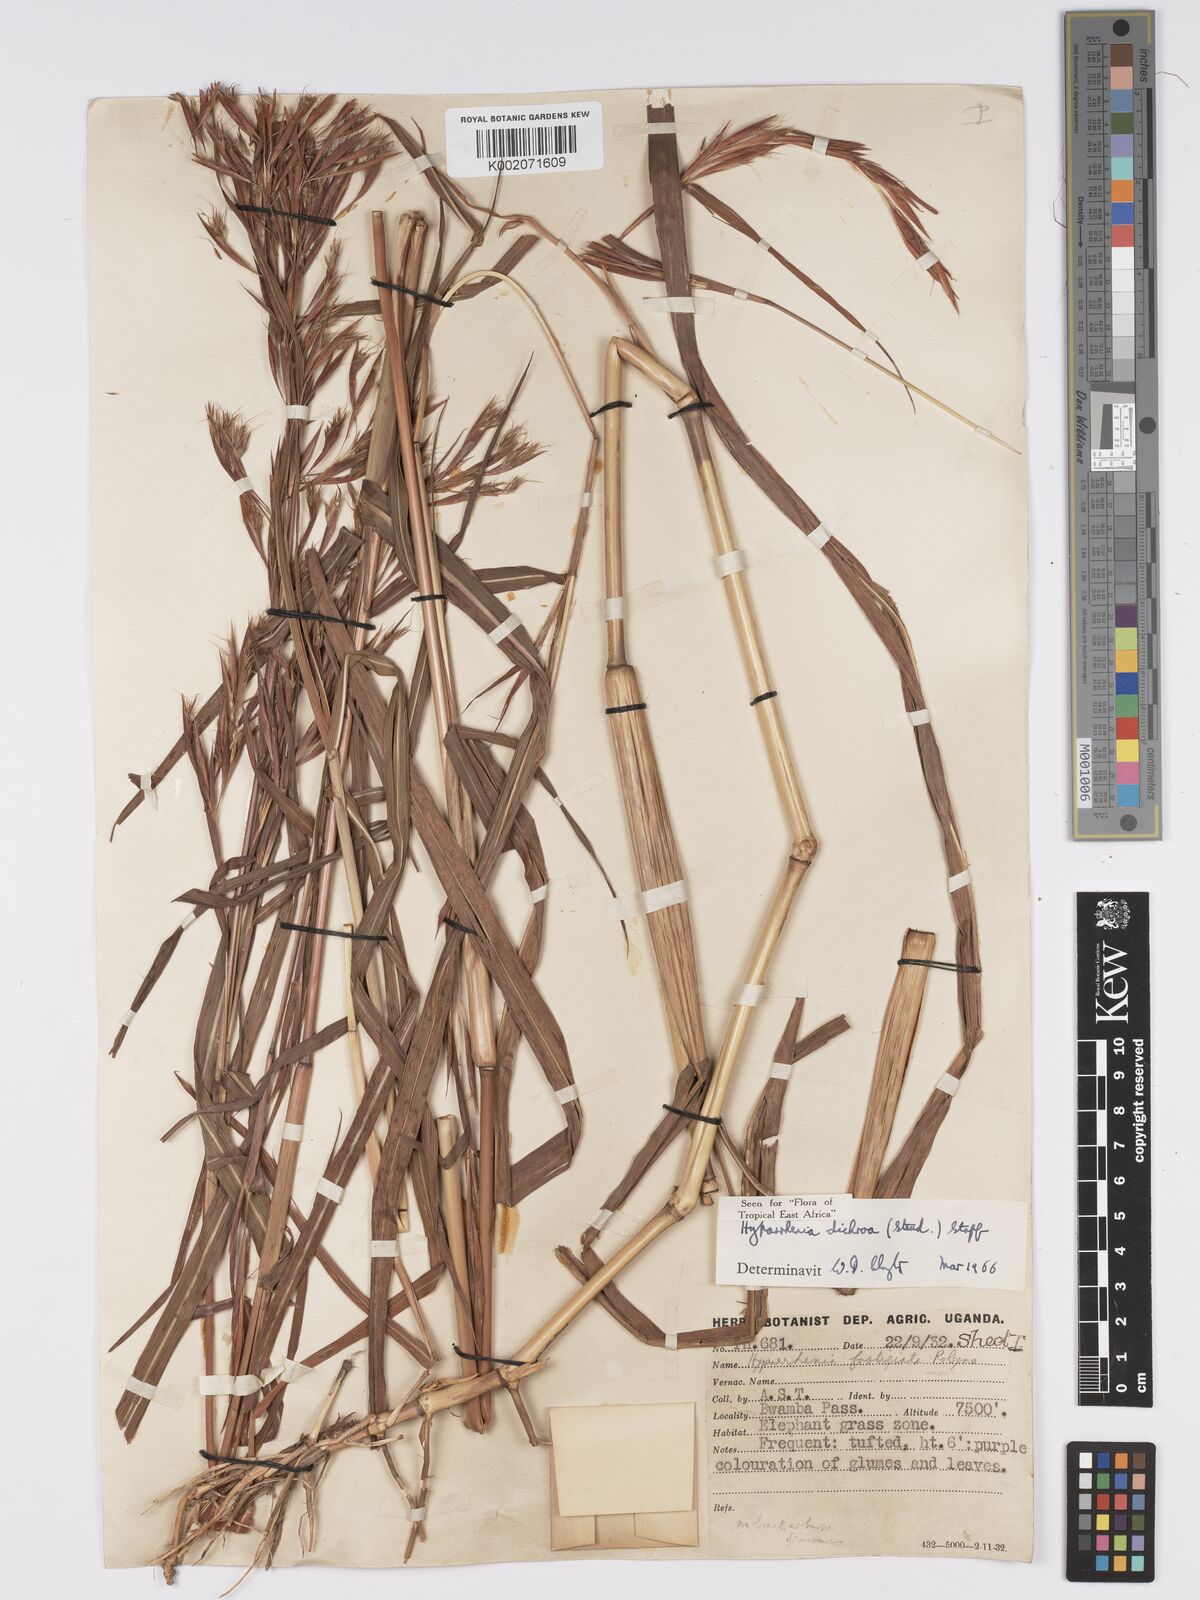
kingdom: Plantae
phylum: Tracheophyta
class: Liliopsida
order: Poales
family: Poaceae
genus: Hyparrhenia
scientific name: Hyparrhenia dichroa
